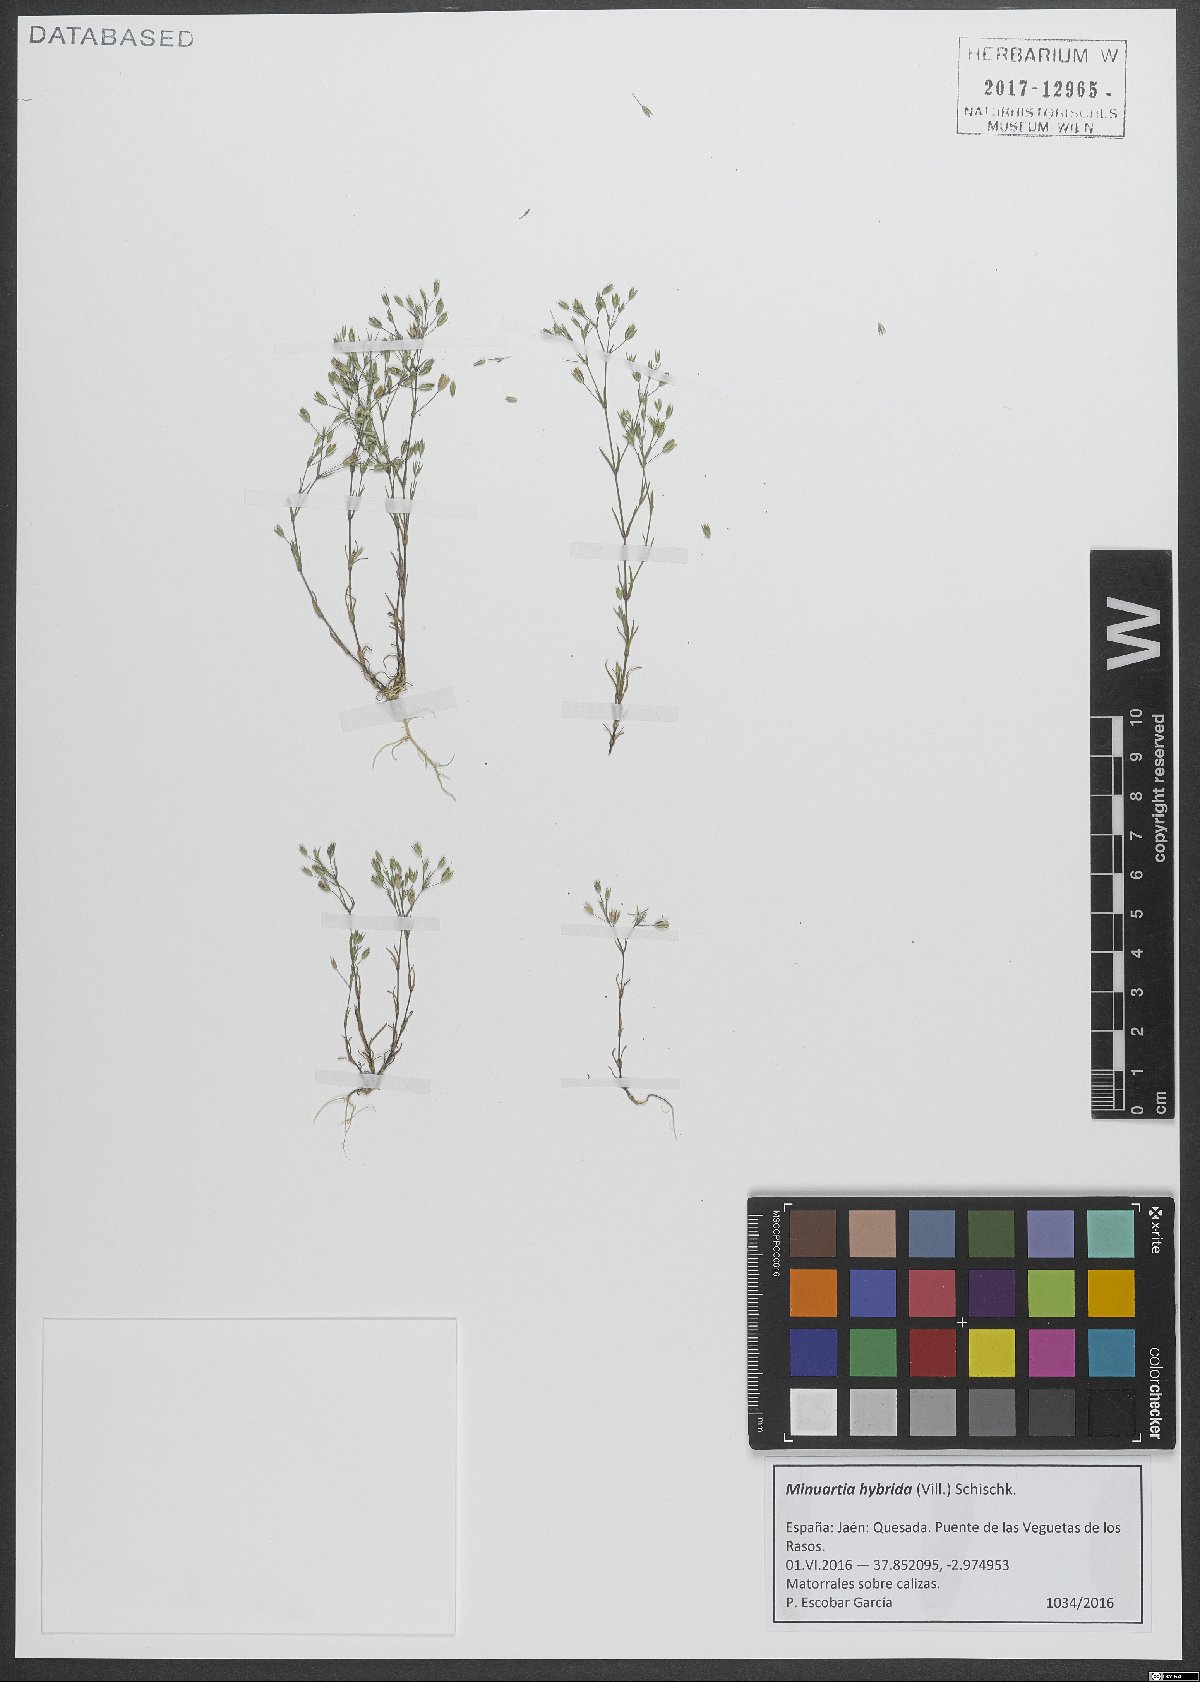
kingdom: Plantae
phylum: Tracheophyta
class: Magnoliopsida
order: Caryophyllales
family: Caryophyllaceae
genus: Sabulina
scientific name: Sabulina tenuifolia
